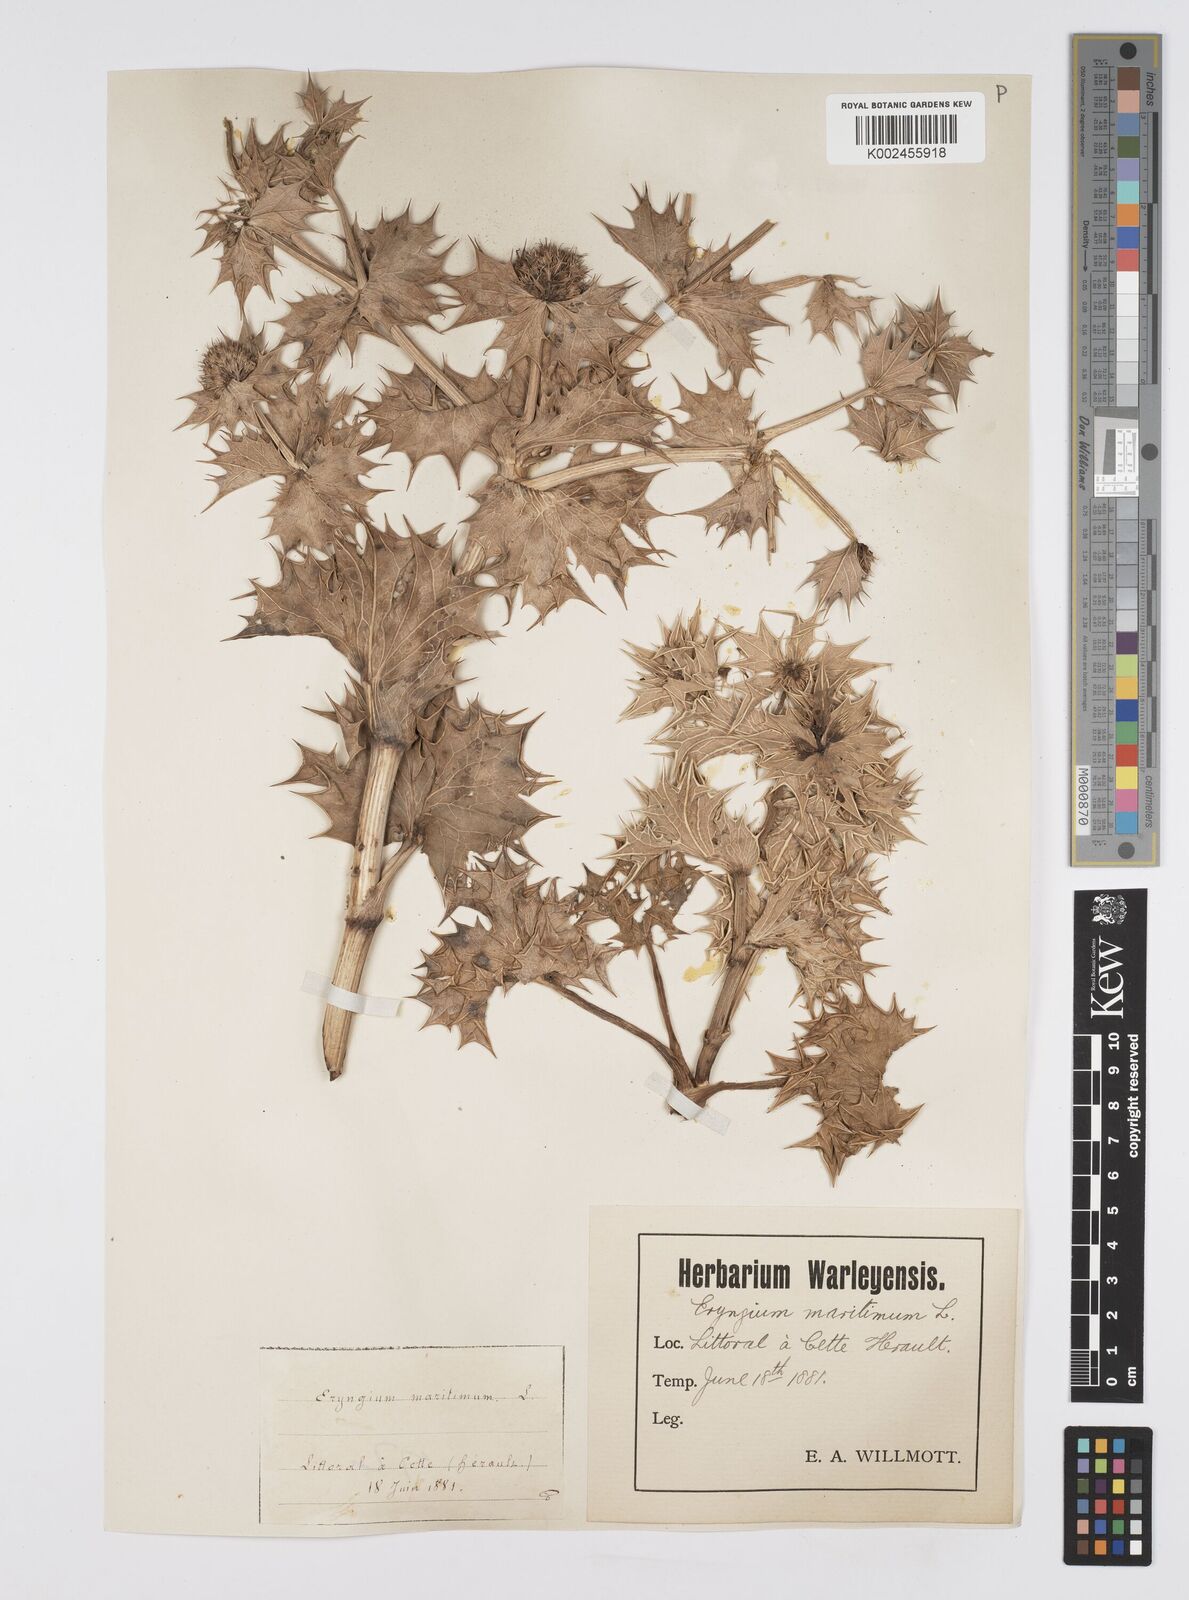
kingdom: Plantae
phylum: Tracheophyta
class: Magnoliopsida
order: Apiales
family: Apiaceae
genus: Eryngium
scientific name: Eryngium maritimum
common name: Sea-holly
